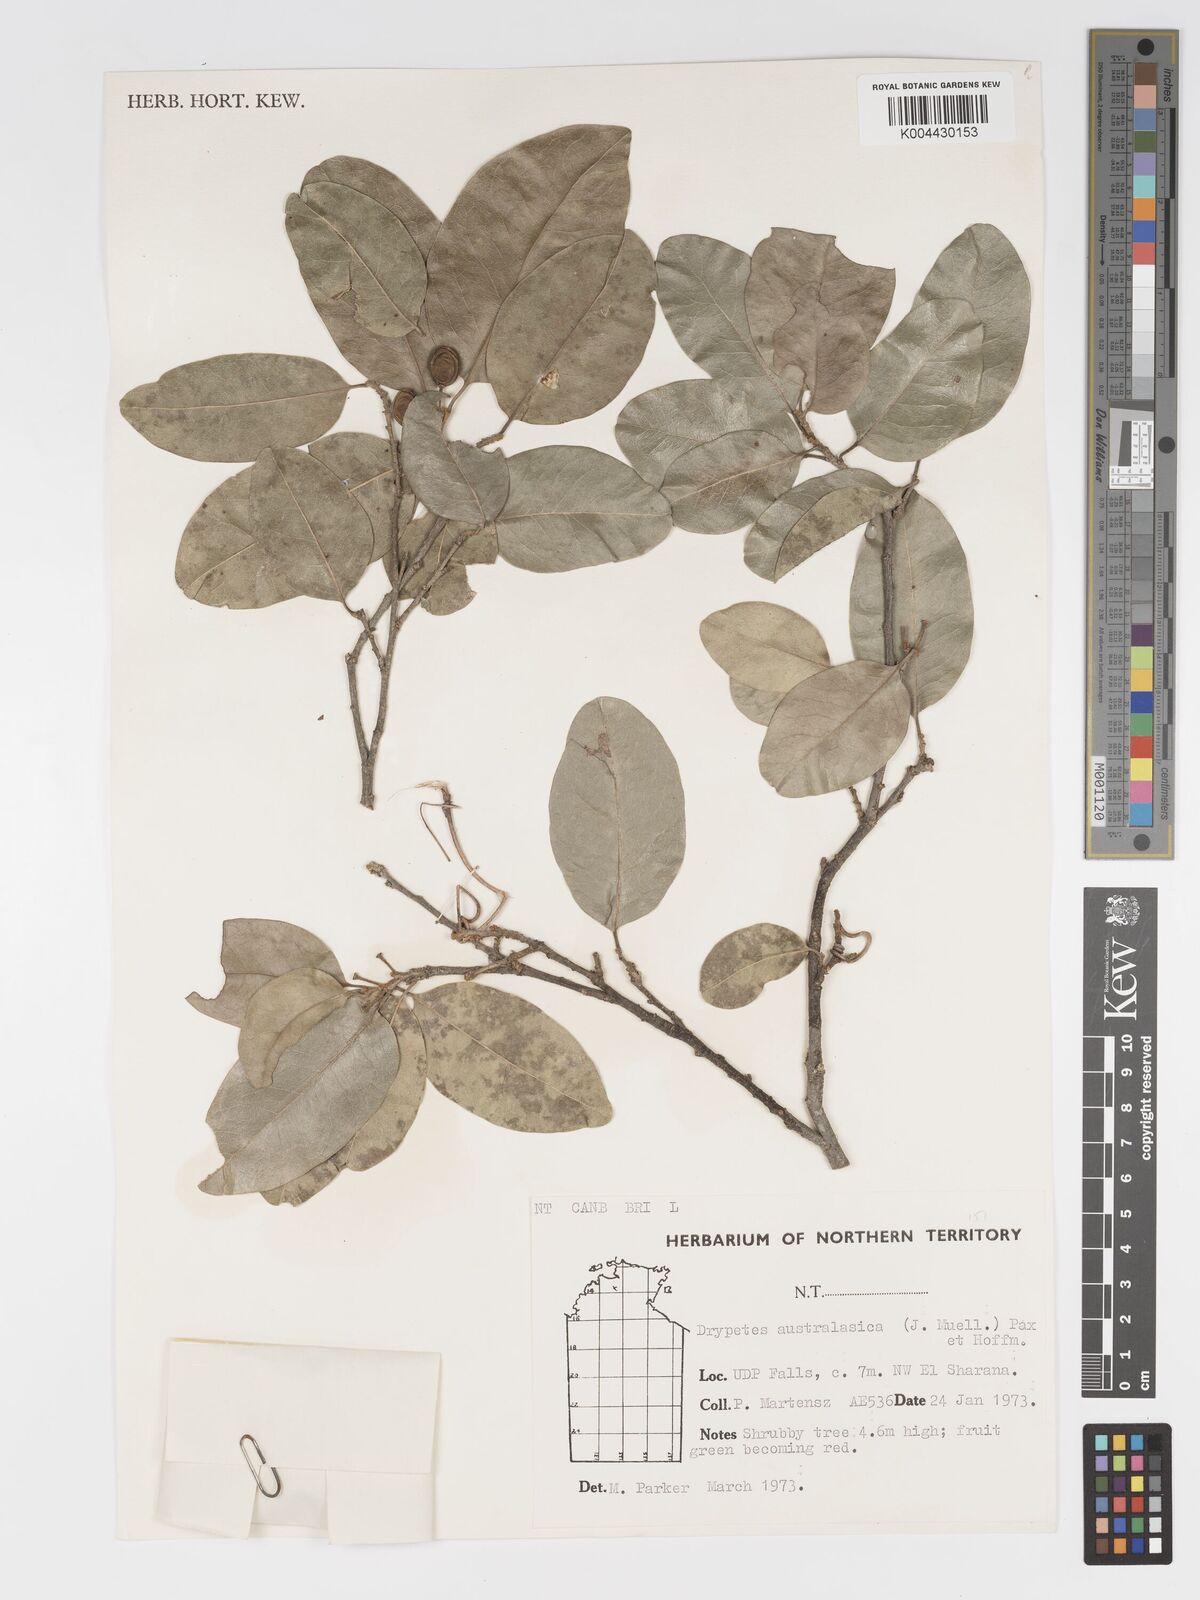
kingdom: Plantae
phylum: Tracheophyta
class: Magnoliopsida
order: Malpighiales
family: Putranjivaceae
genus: Drypetes
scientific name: Drypetes deplanchei
